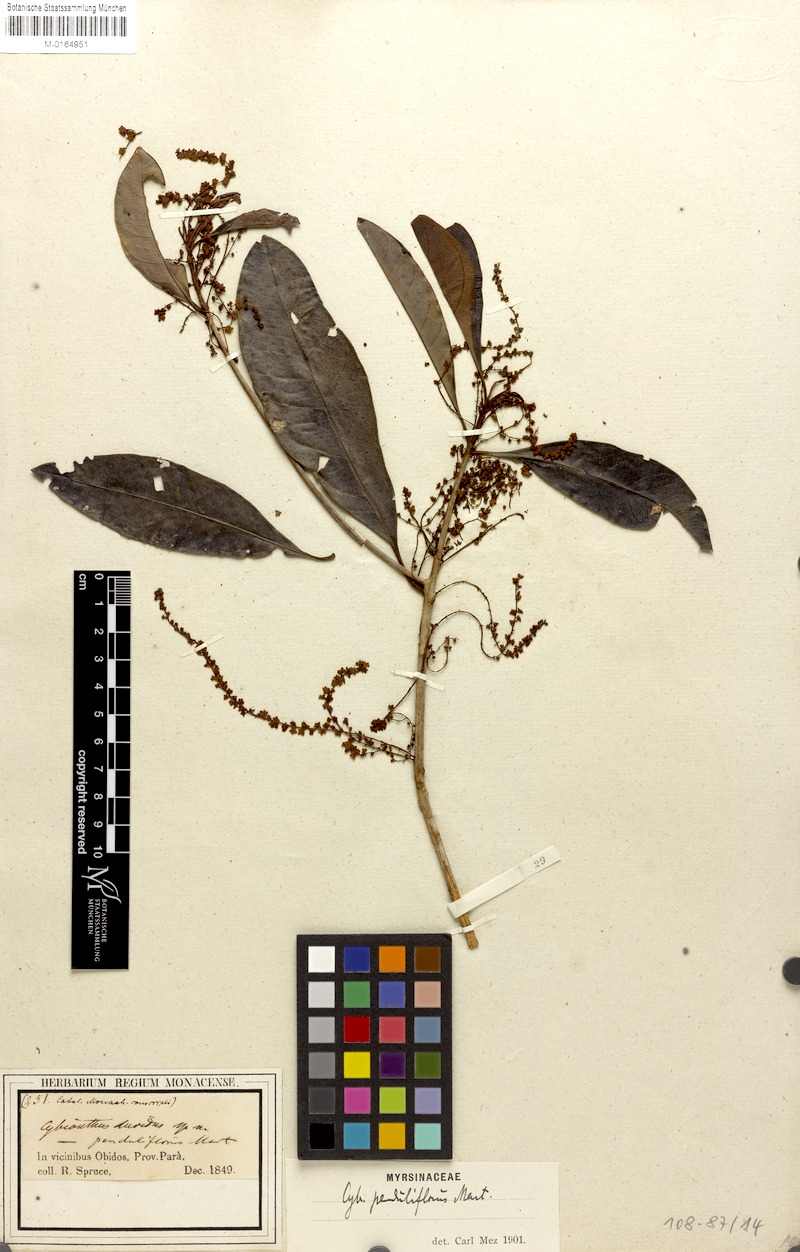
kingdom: Plantae
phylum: Tracheophyta
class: Magnoliopsida
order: Ericales
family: Primulaceae
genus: Cybianthus
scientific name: Cybianthus penduliflorus
